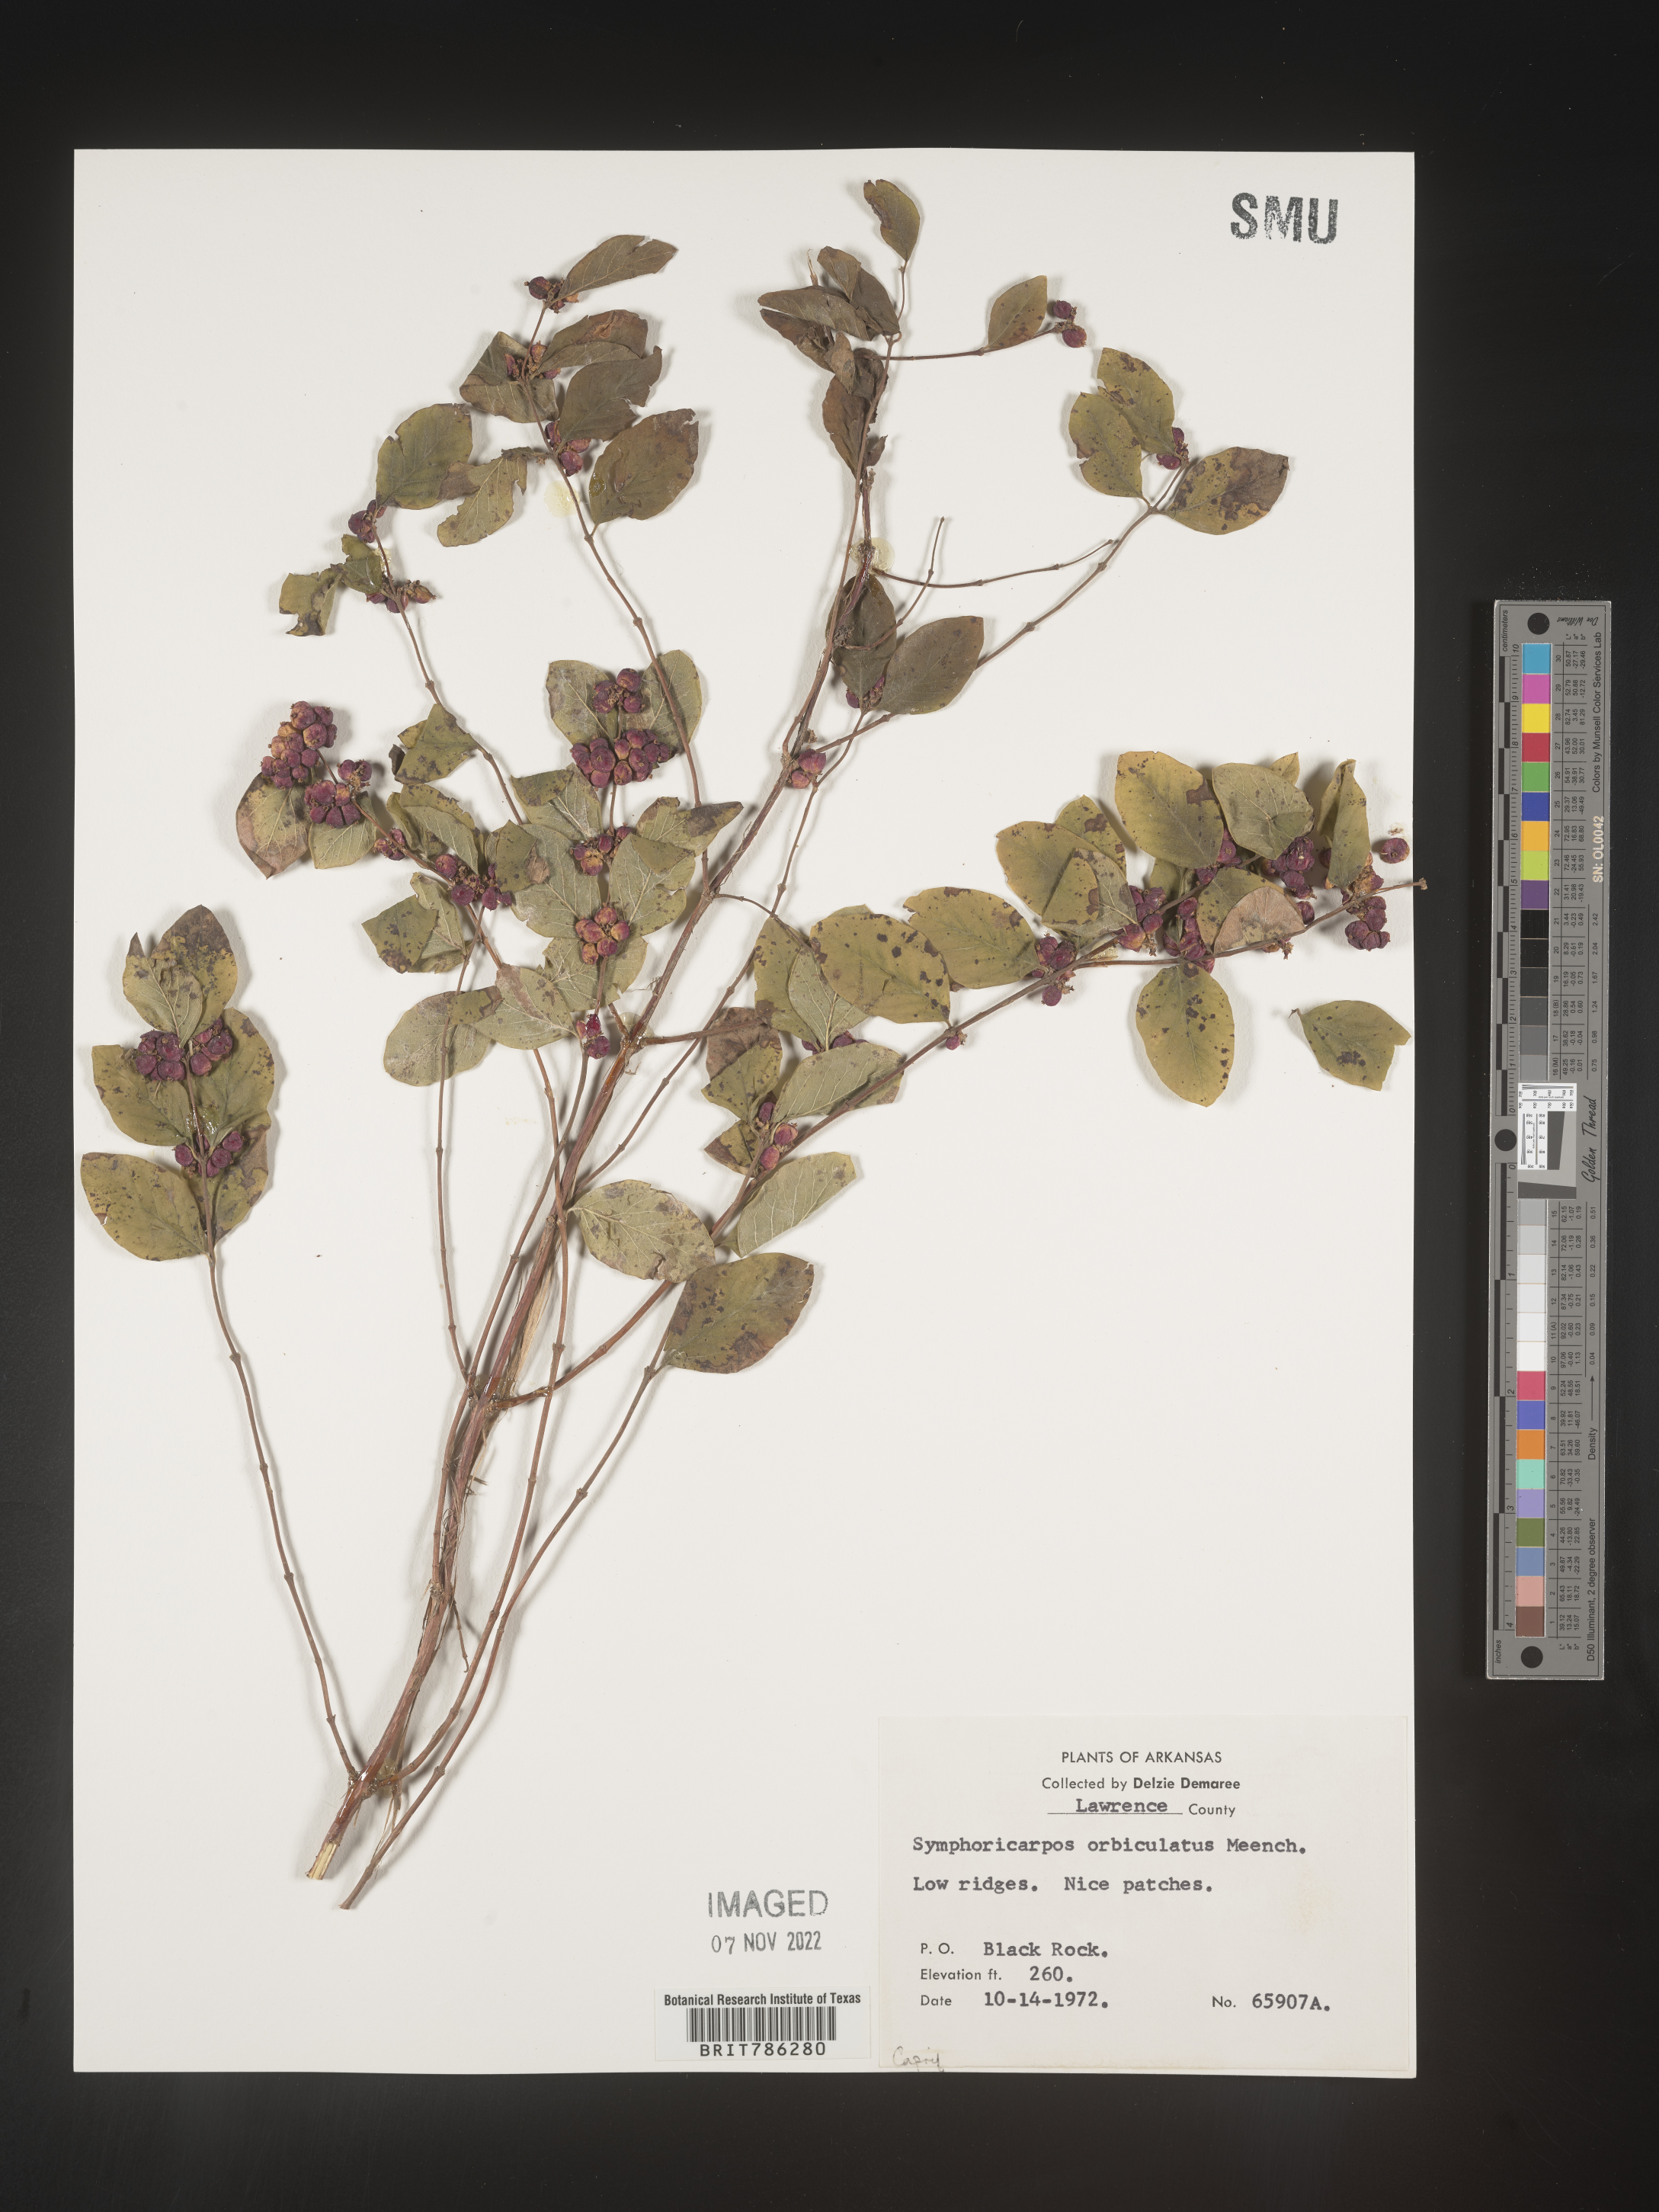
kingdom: Plantae
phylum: Tracheophyta
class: Magnoliopsida
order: Dipsacales
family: Caprifoliaceae
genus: Symphoricarpos
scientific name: Symphoricarpos orbiculatus
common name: Coralberry
